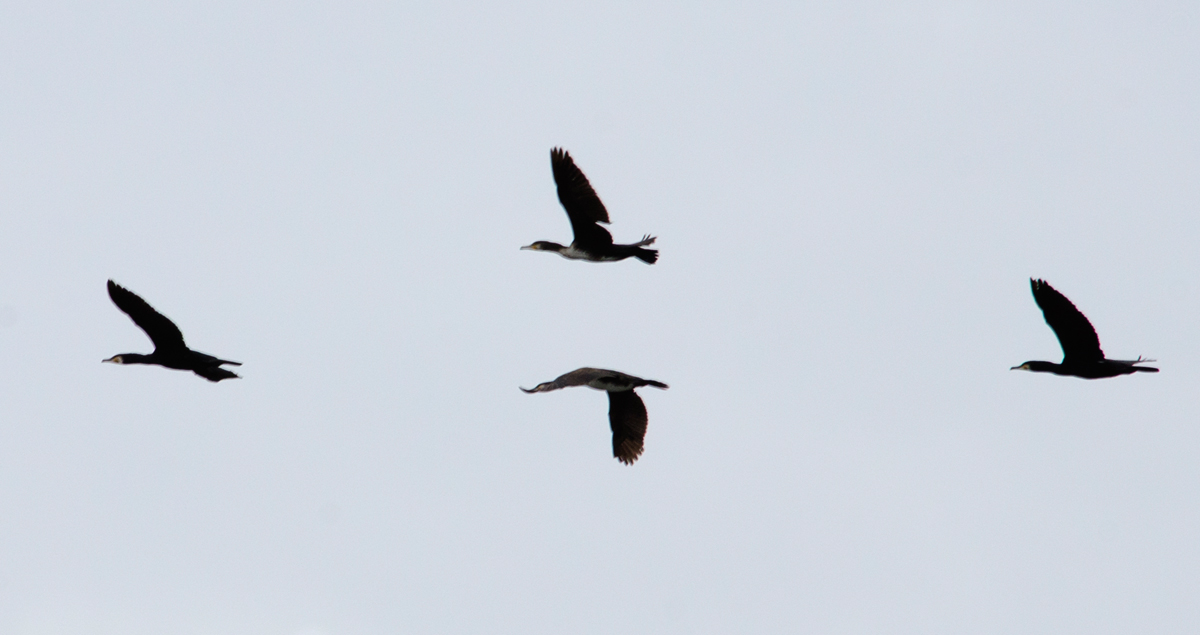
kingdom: Animalia
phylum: Chordata
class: Aves
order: Suliformes
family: Phalacrocoracidae
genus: Phalacrocorax
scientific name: Phalacrocorax carbo
